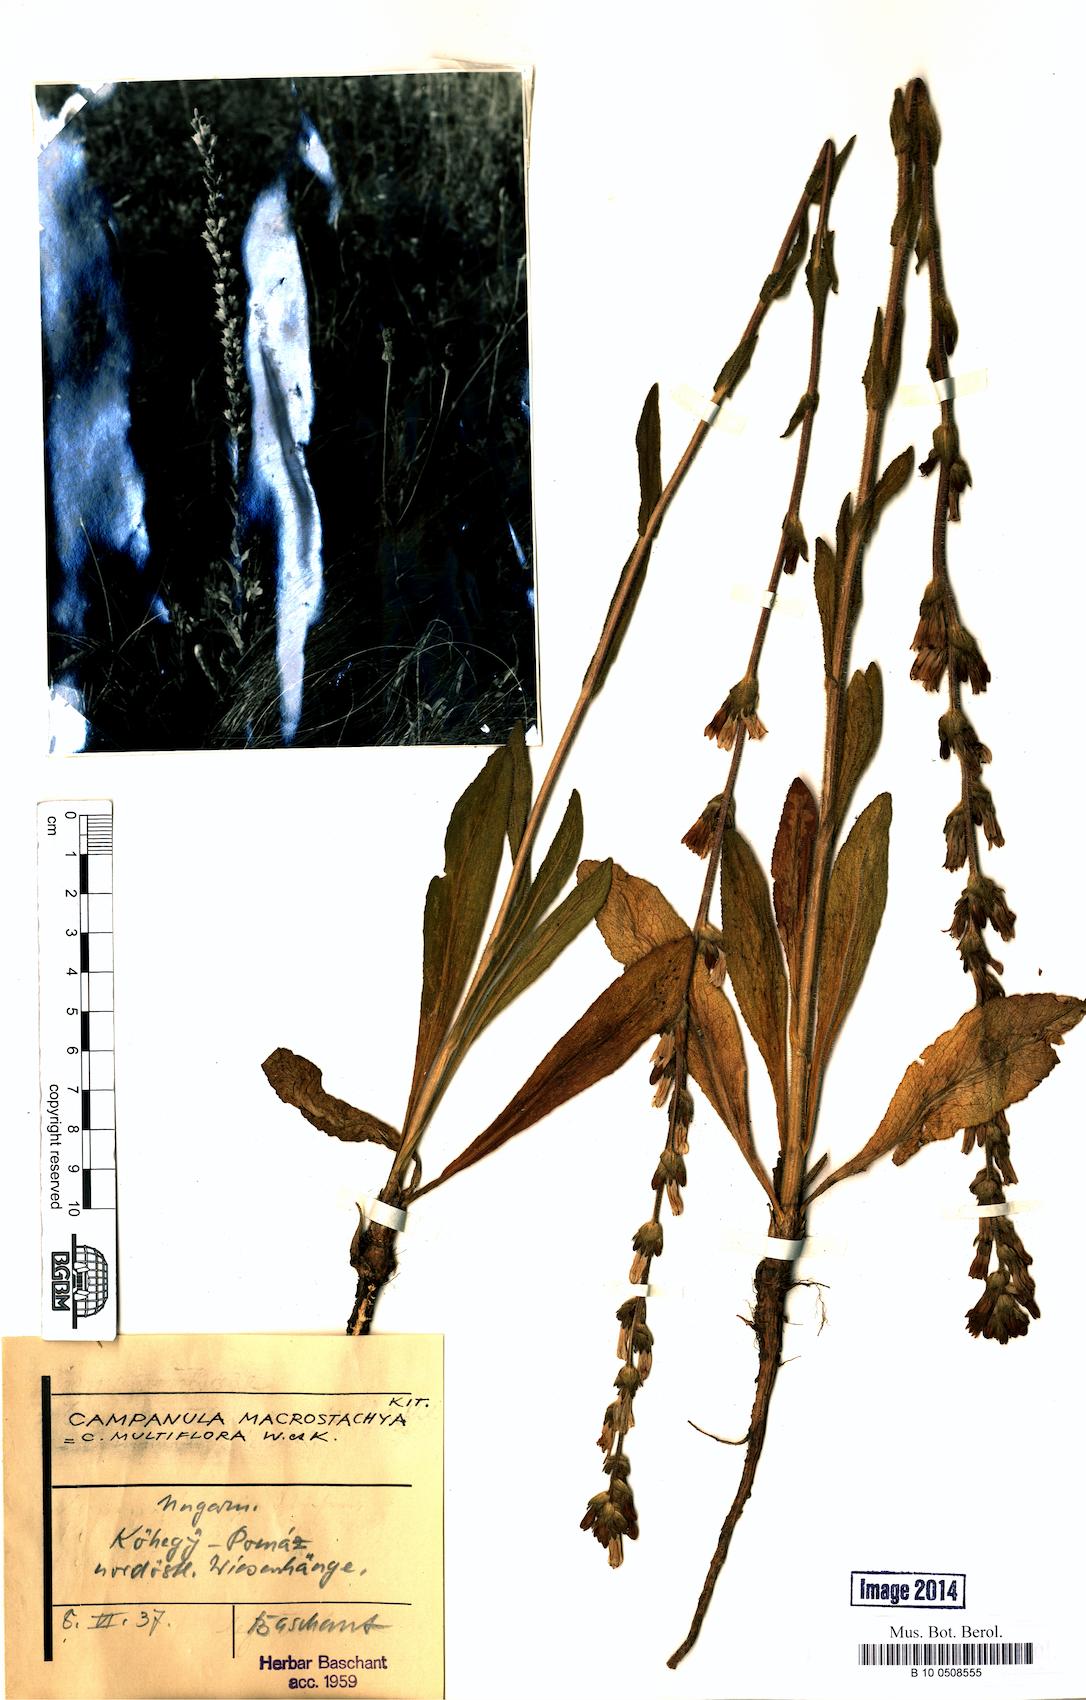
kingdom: Plantae
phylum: Tracheophyta
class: Magnoliopsida
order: Asterales
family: Campanulaceae
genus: Campanula
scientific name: Campanula macrostachya
